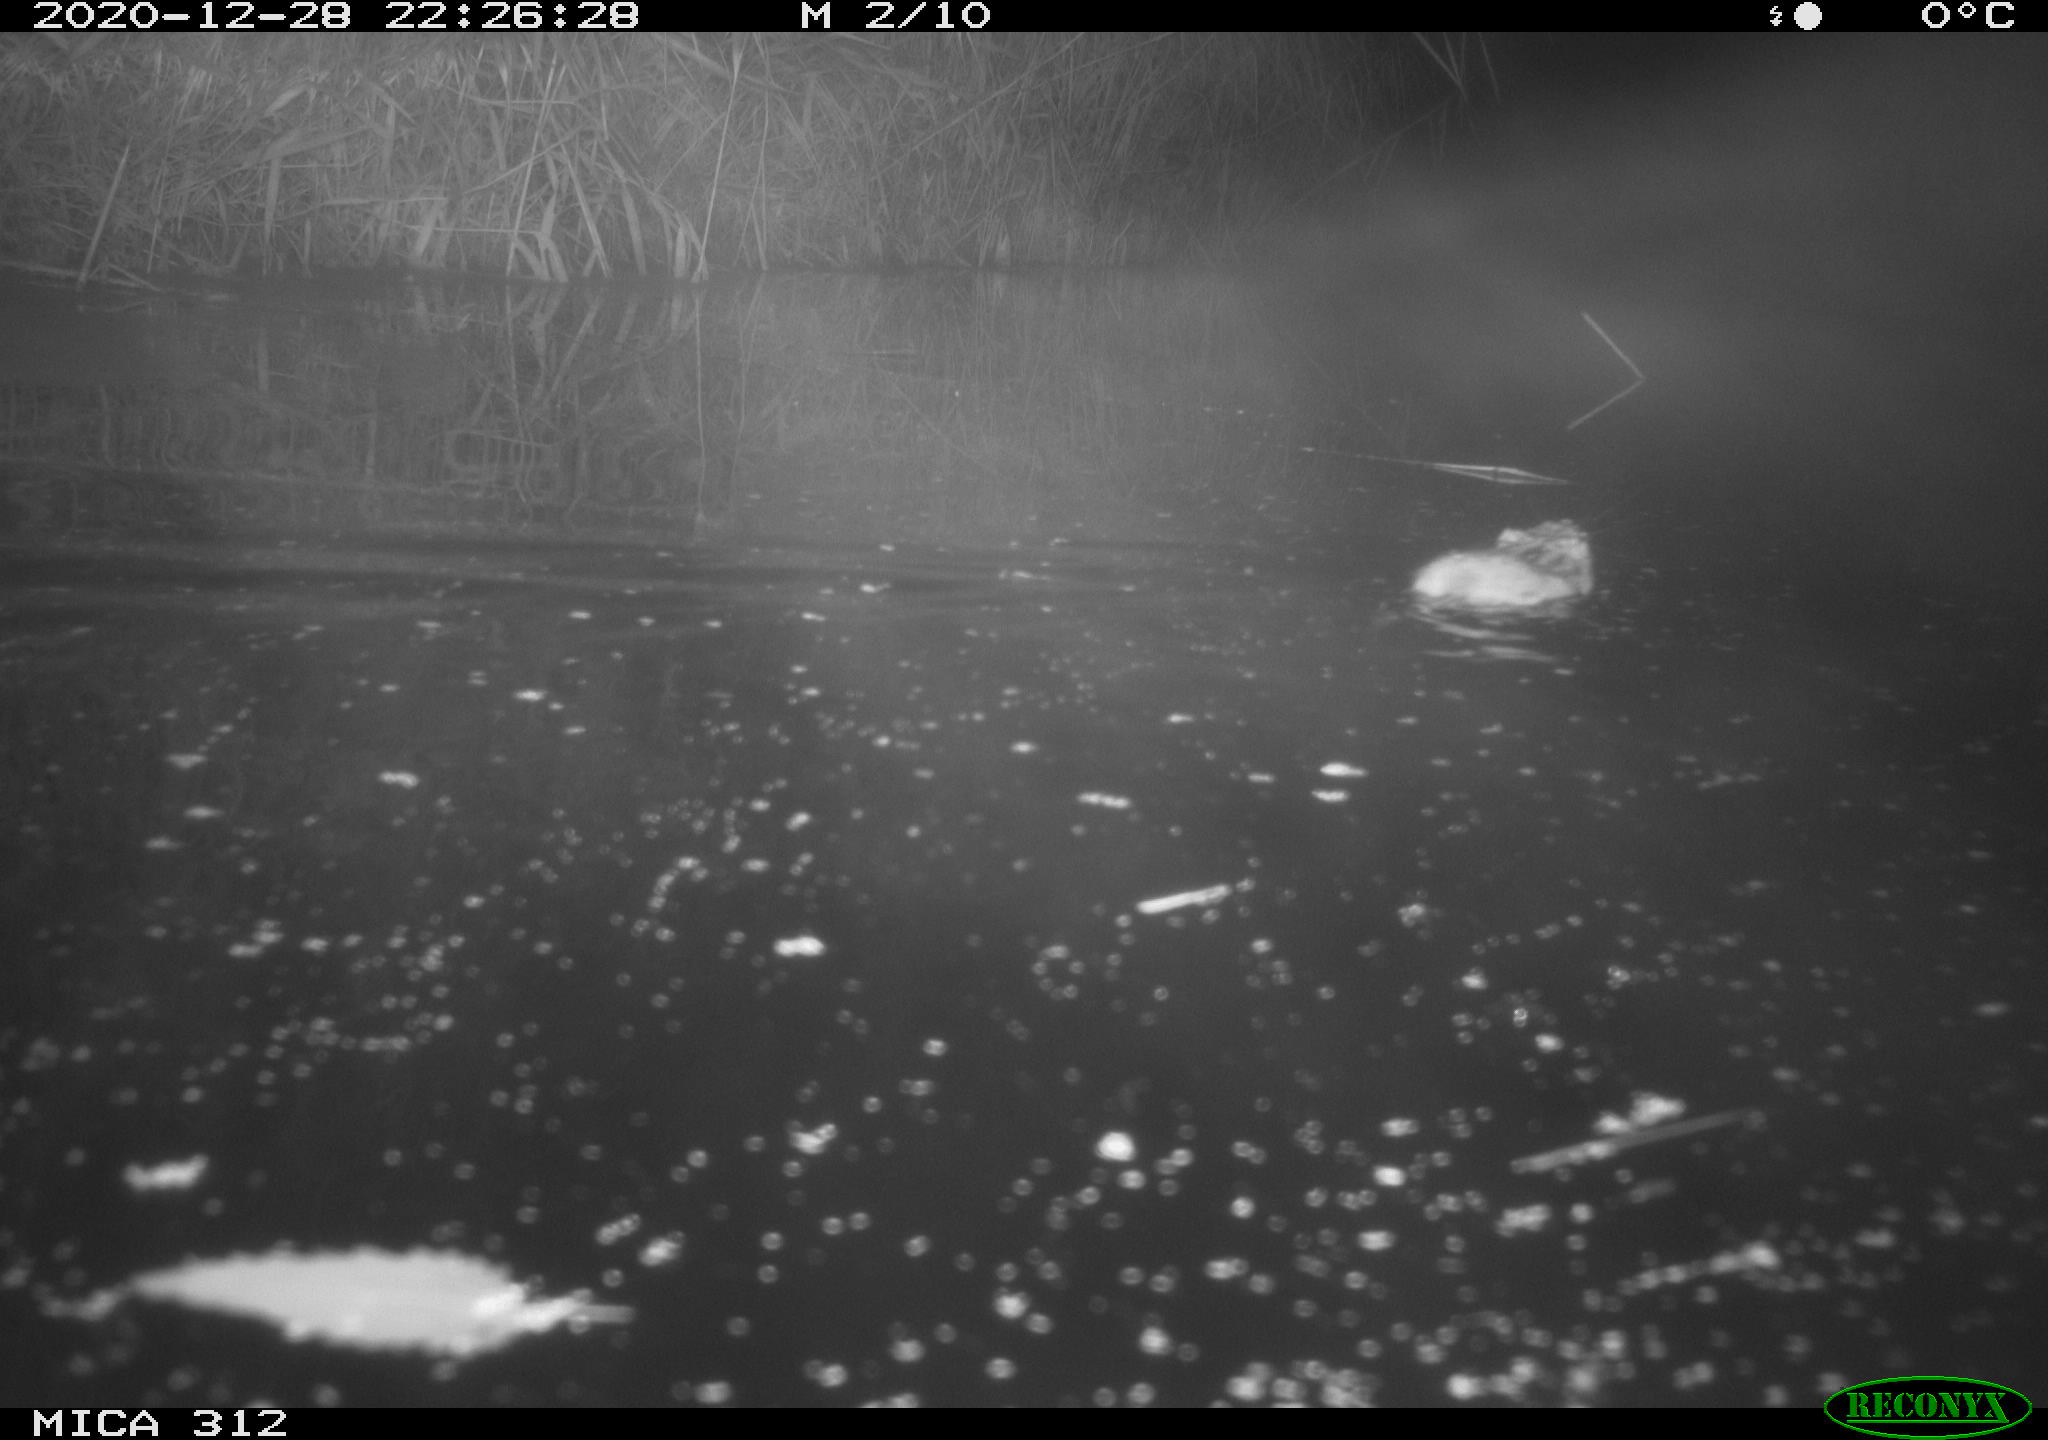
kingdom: Animalia
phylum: Chordata
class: Mammalia
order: Rodentia
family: Cricetidae
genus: Ondatra
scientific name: Ondatra zibethicus
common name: Muskrat
